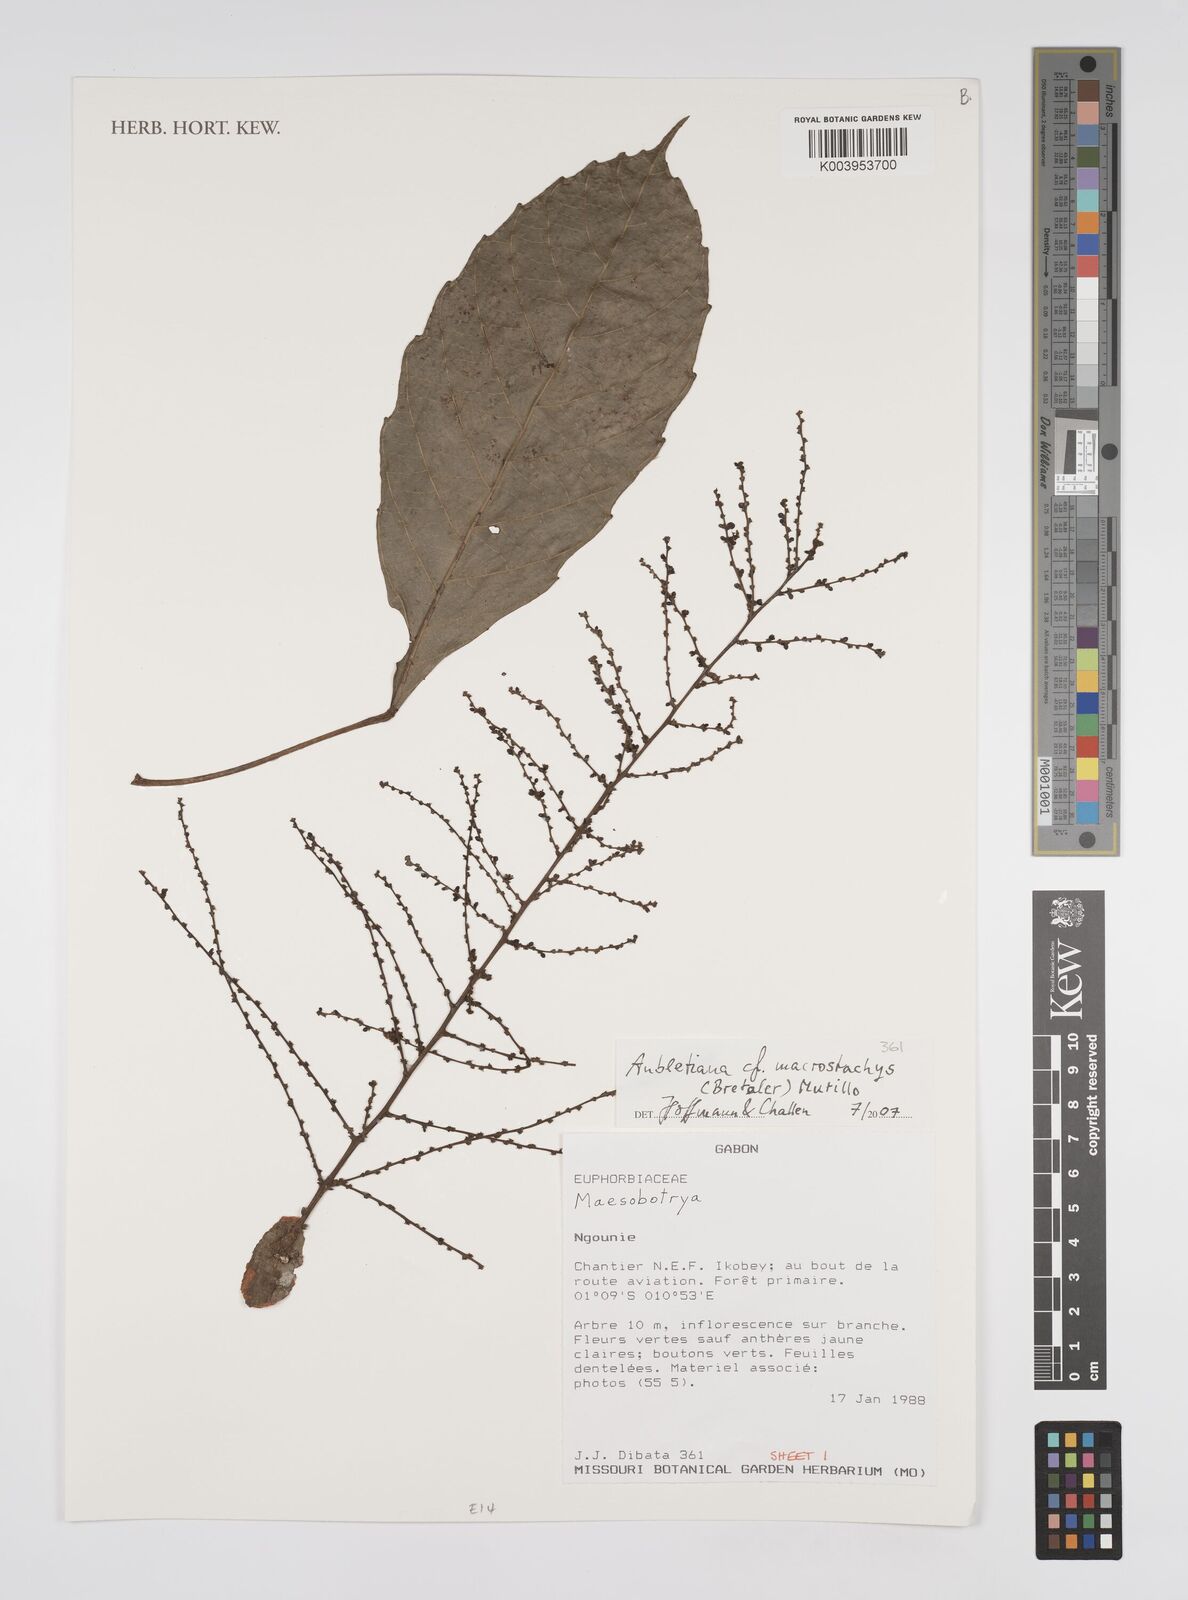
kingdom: Plantae
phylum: Tracheophyta
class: Magnoliopsida
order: Malpighiales
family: Euphorbiaceae
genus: Aubletiana
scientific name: Aubletiana macrostachys
